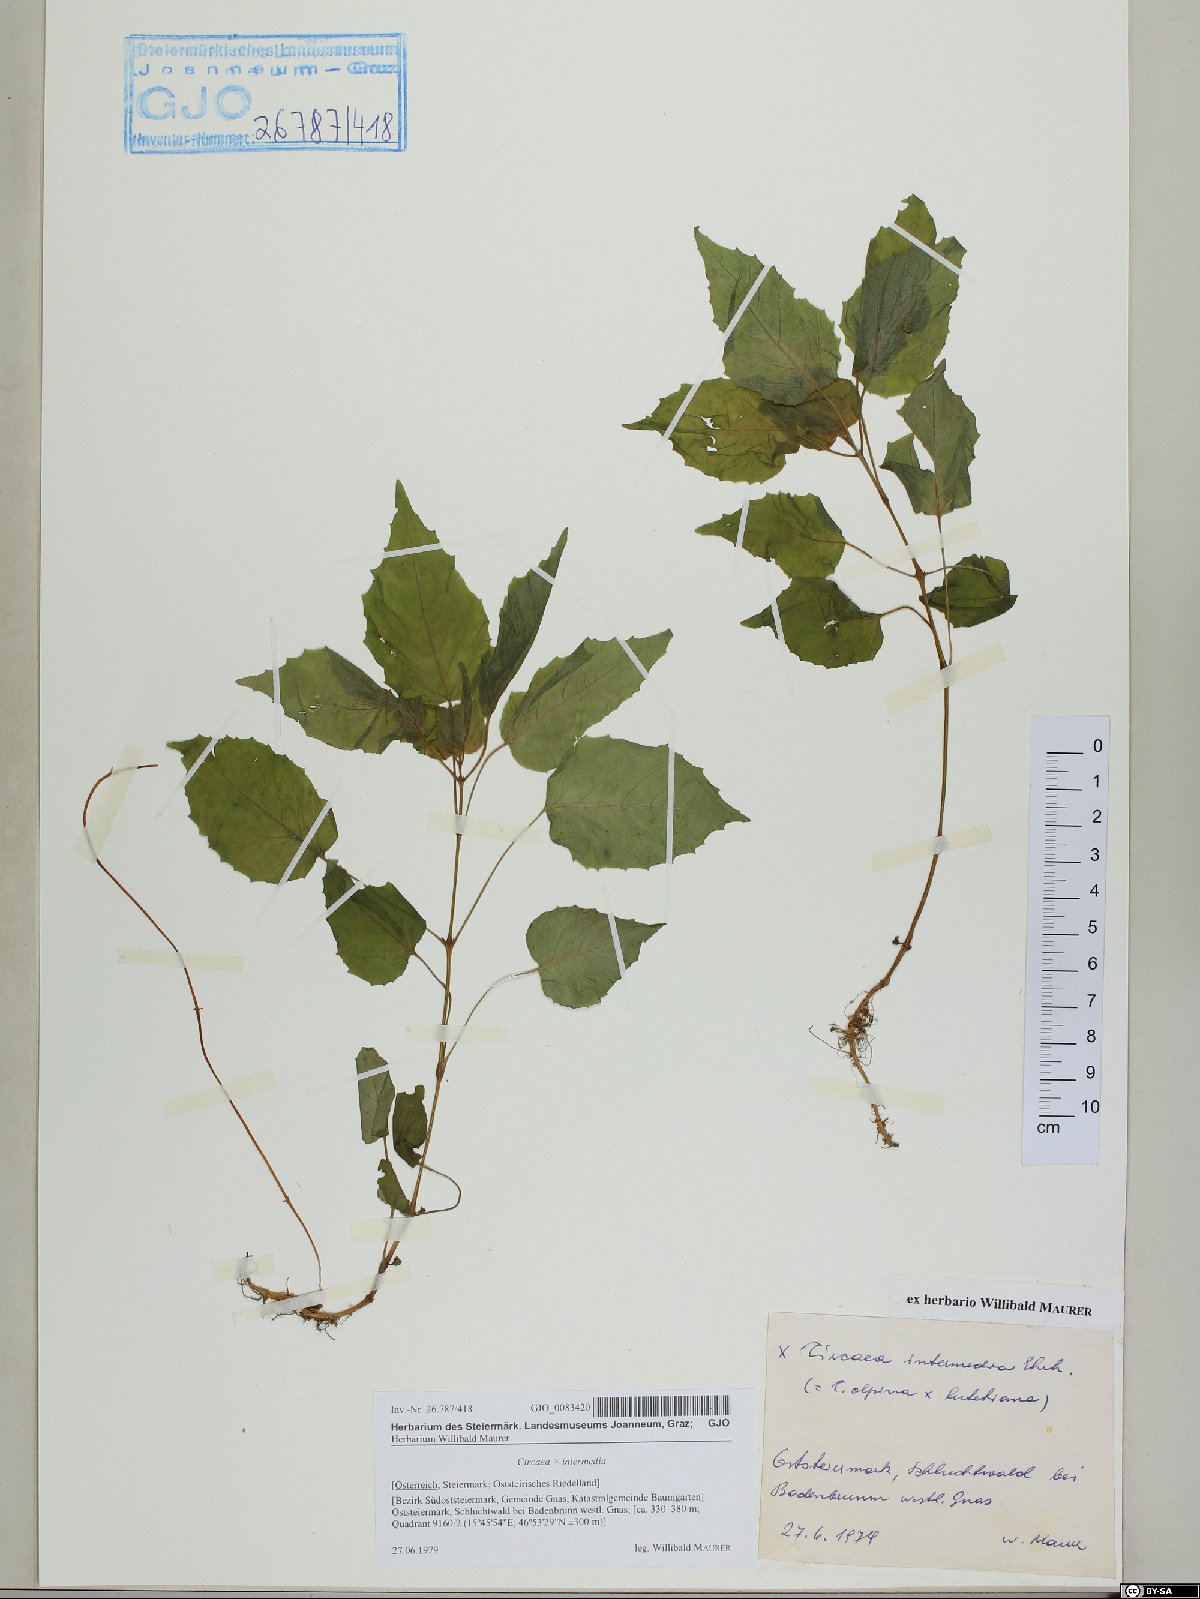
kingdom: Plantae
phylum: Tracheophyta
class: Magnoliopsida
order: Myrtales
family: Onagraceae
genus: Circaea
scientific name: Circaea intermedia
